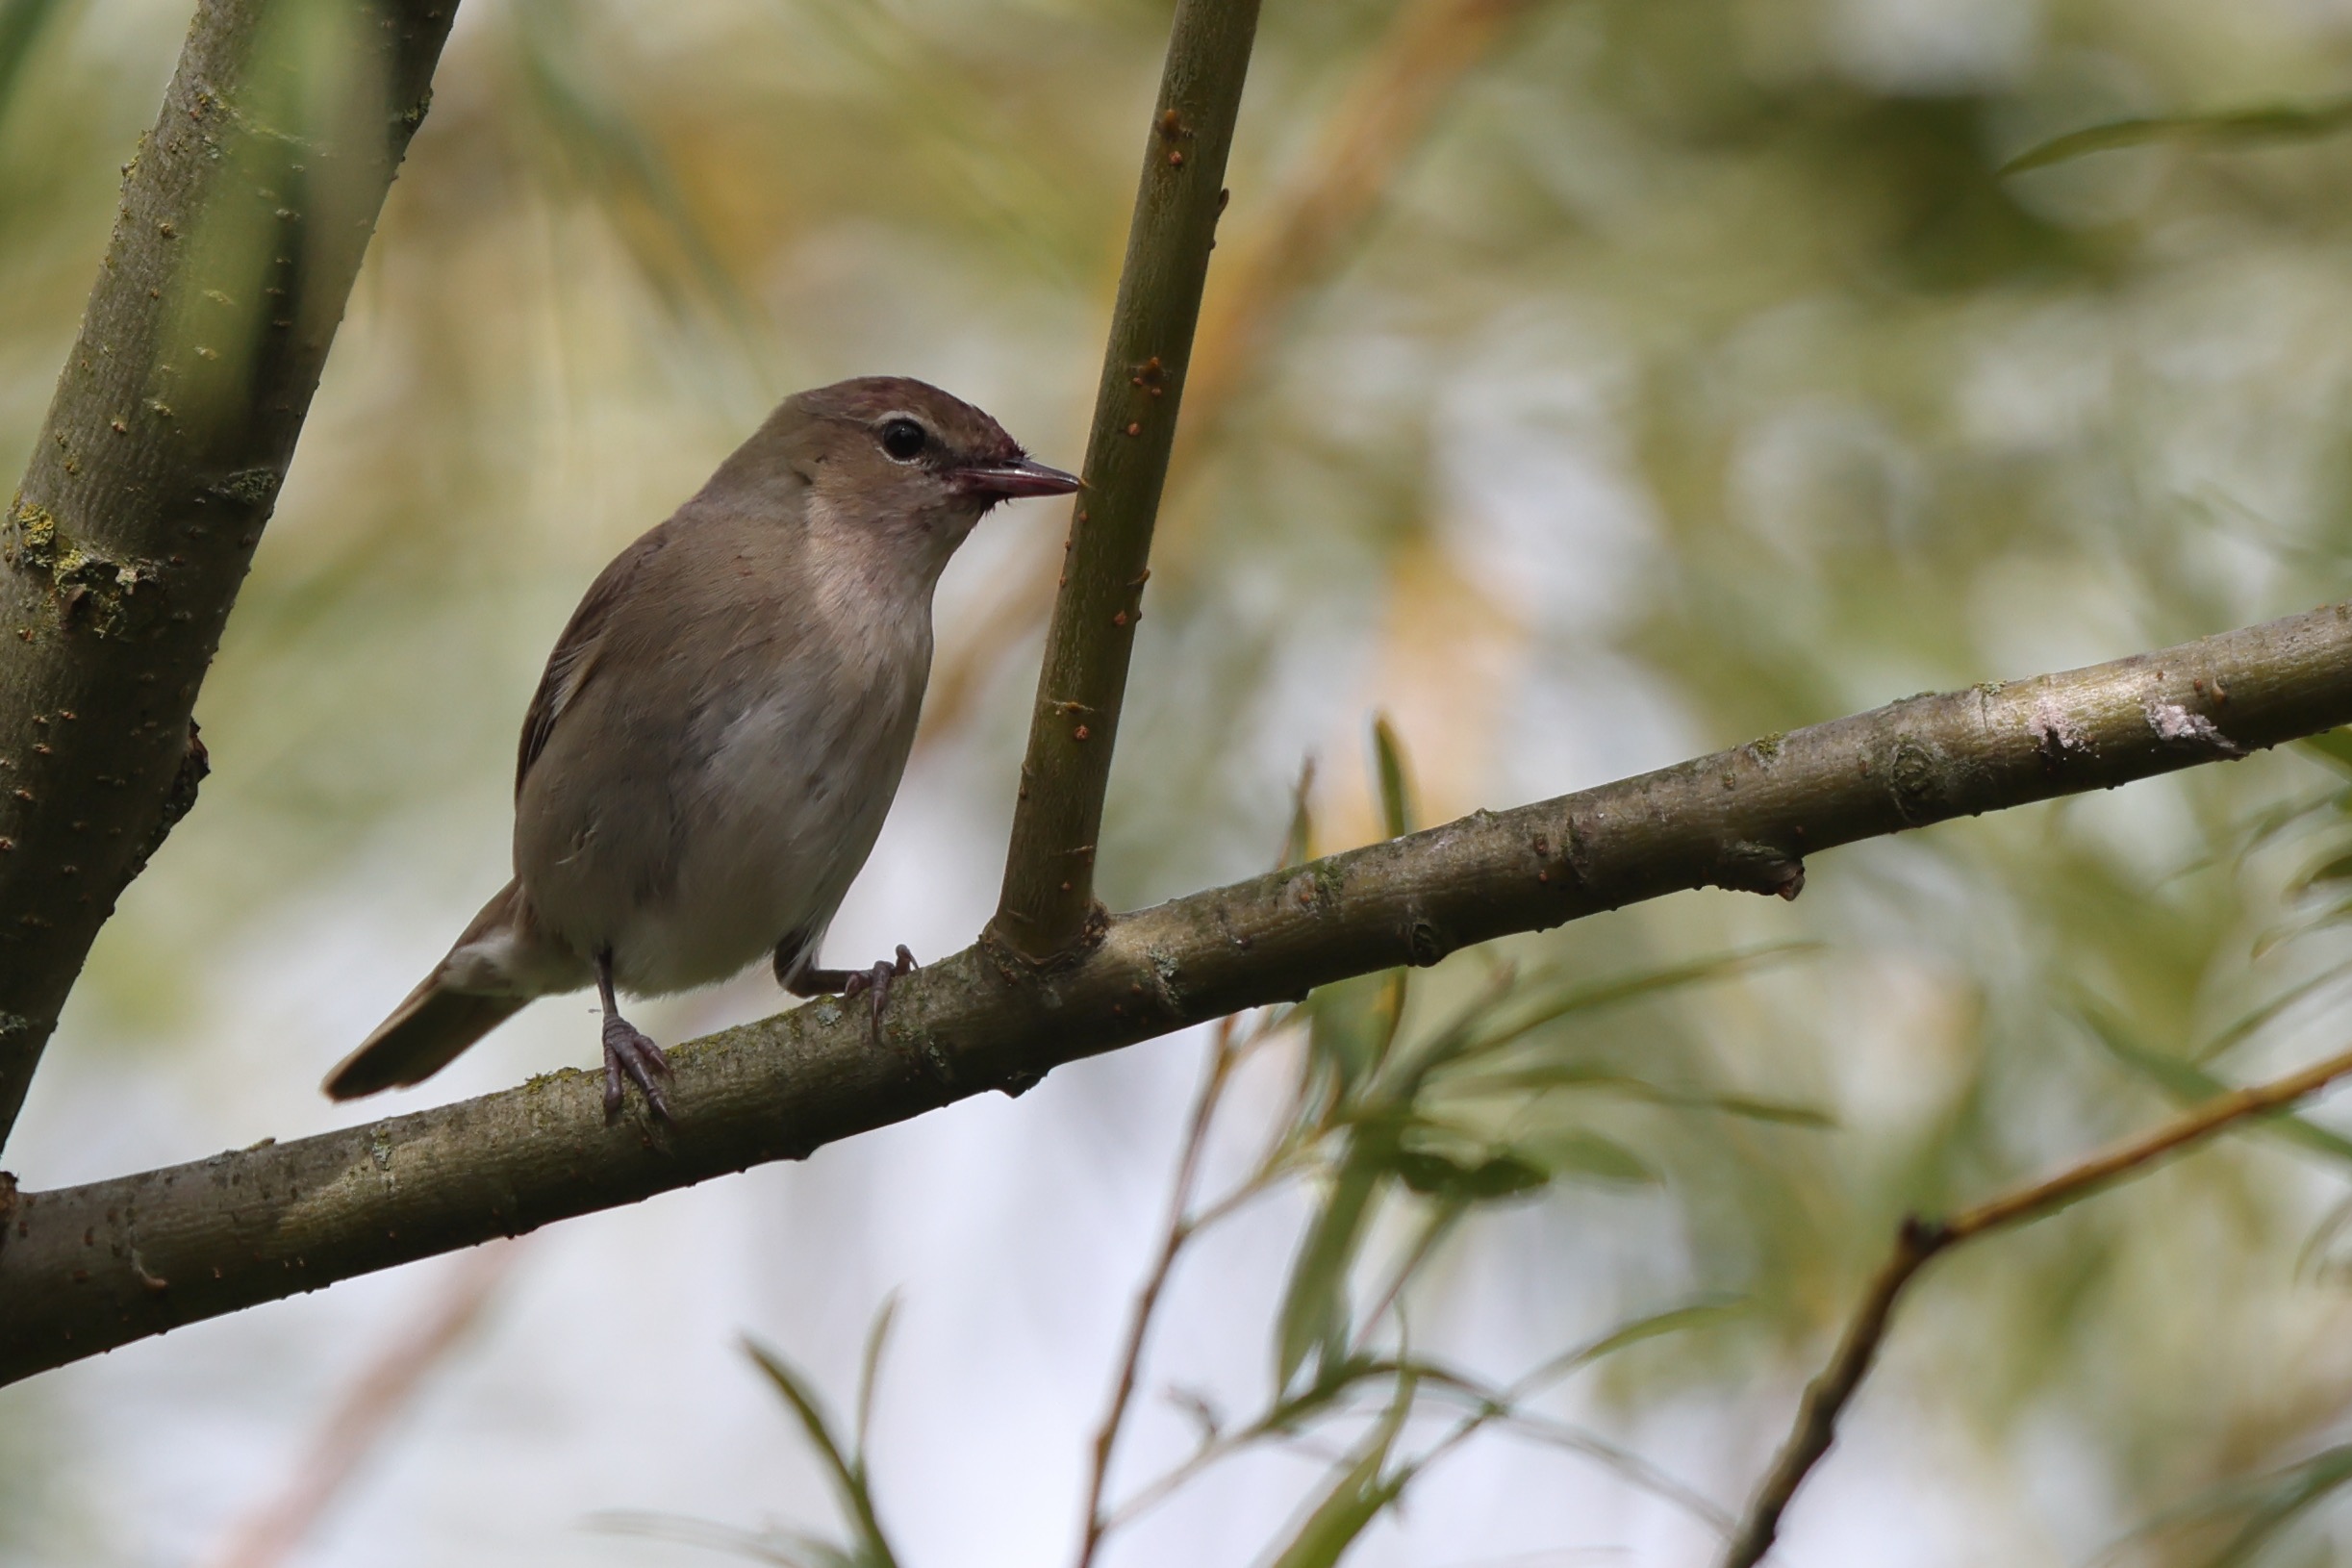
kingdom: Animalia
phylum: Chordata
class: Aves
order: Passeriformes
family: Sylviidae
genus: Sylvia
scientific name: Sylvia borin
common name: Havesanger
